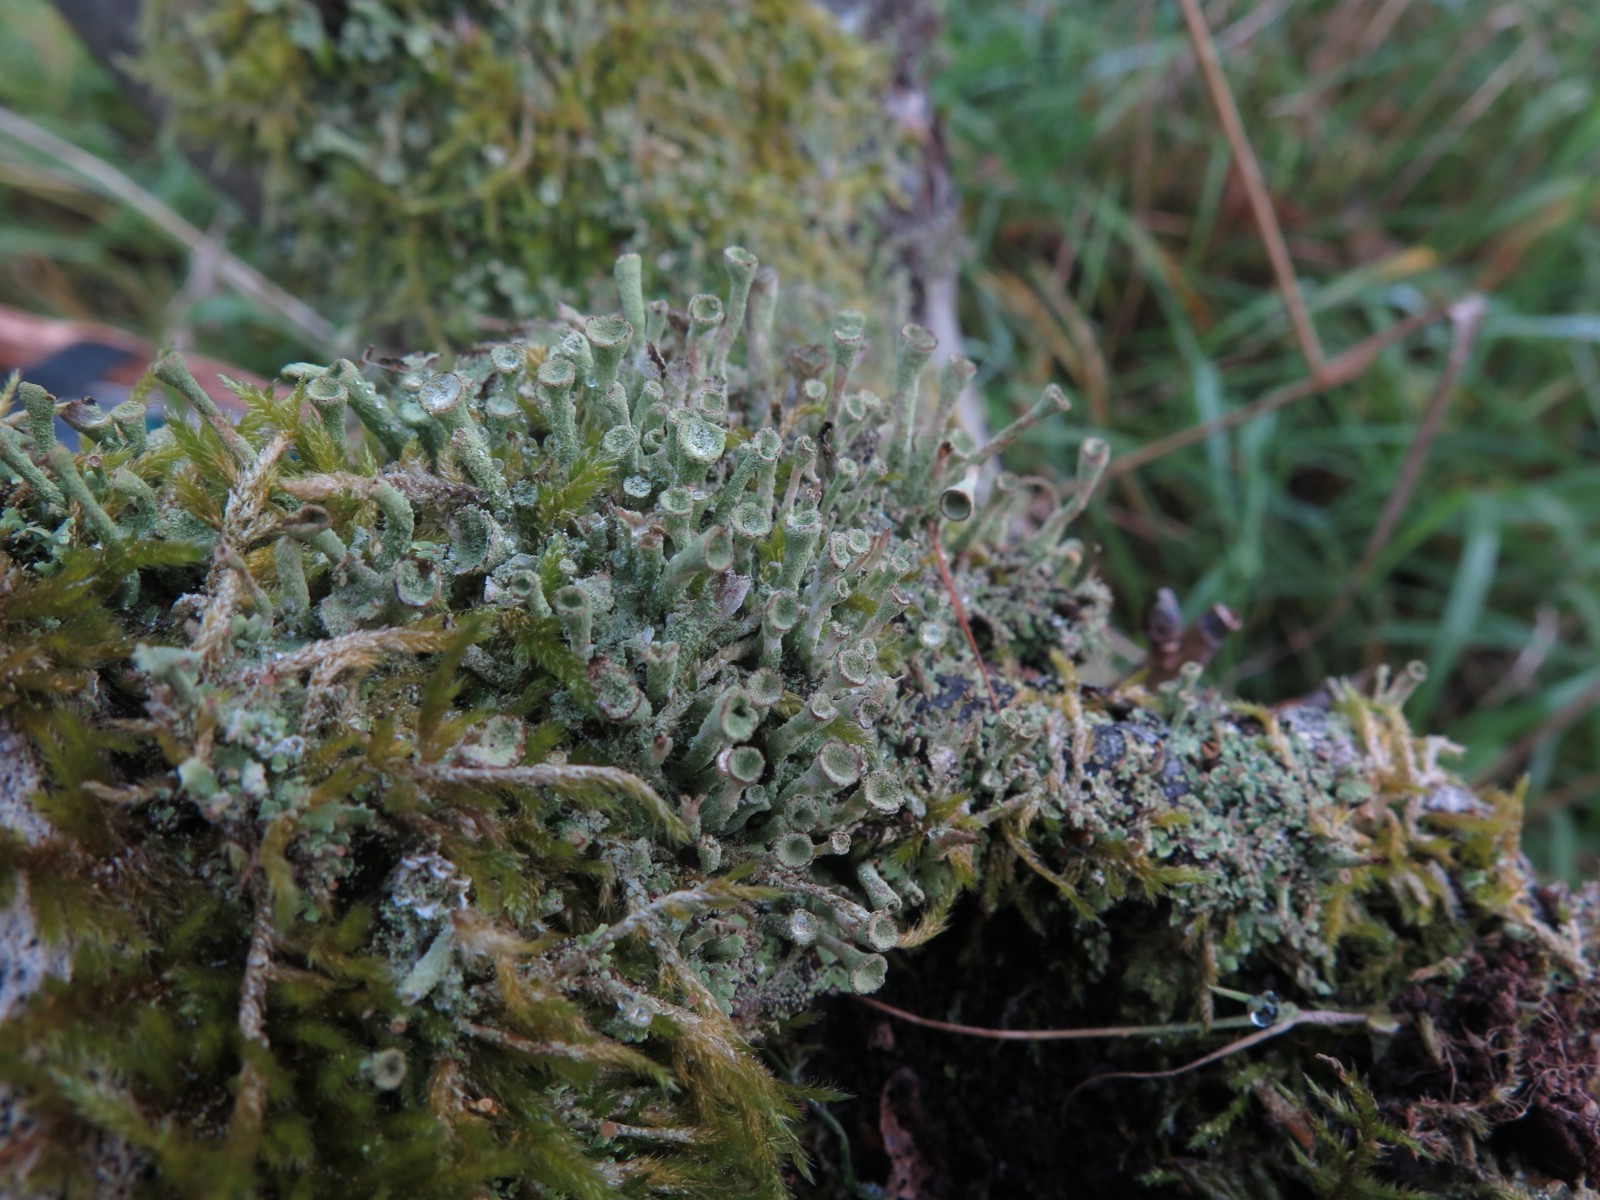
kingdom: Fungi
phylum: Ascomycota
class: Lecanoromycetes
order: Lecanorales
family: Cladoniaceae
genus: Cladonia
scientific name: Cladonia
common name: brungrøn bægerlav
